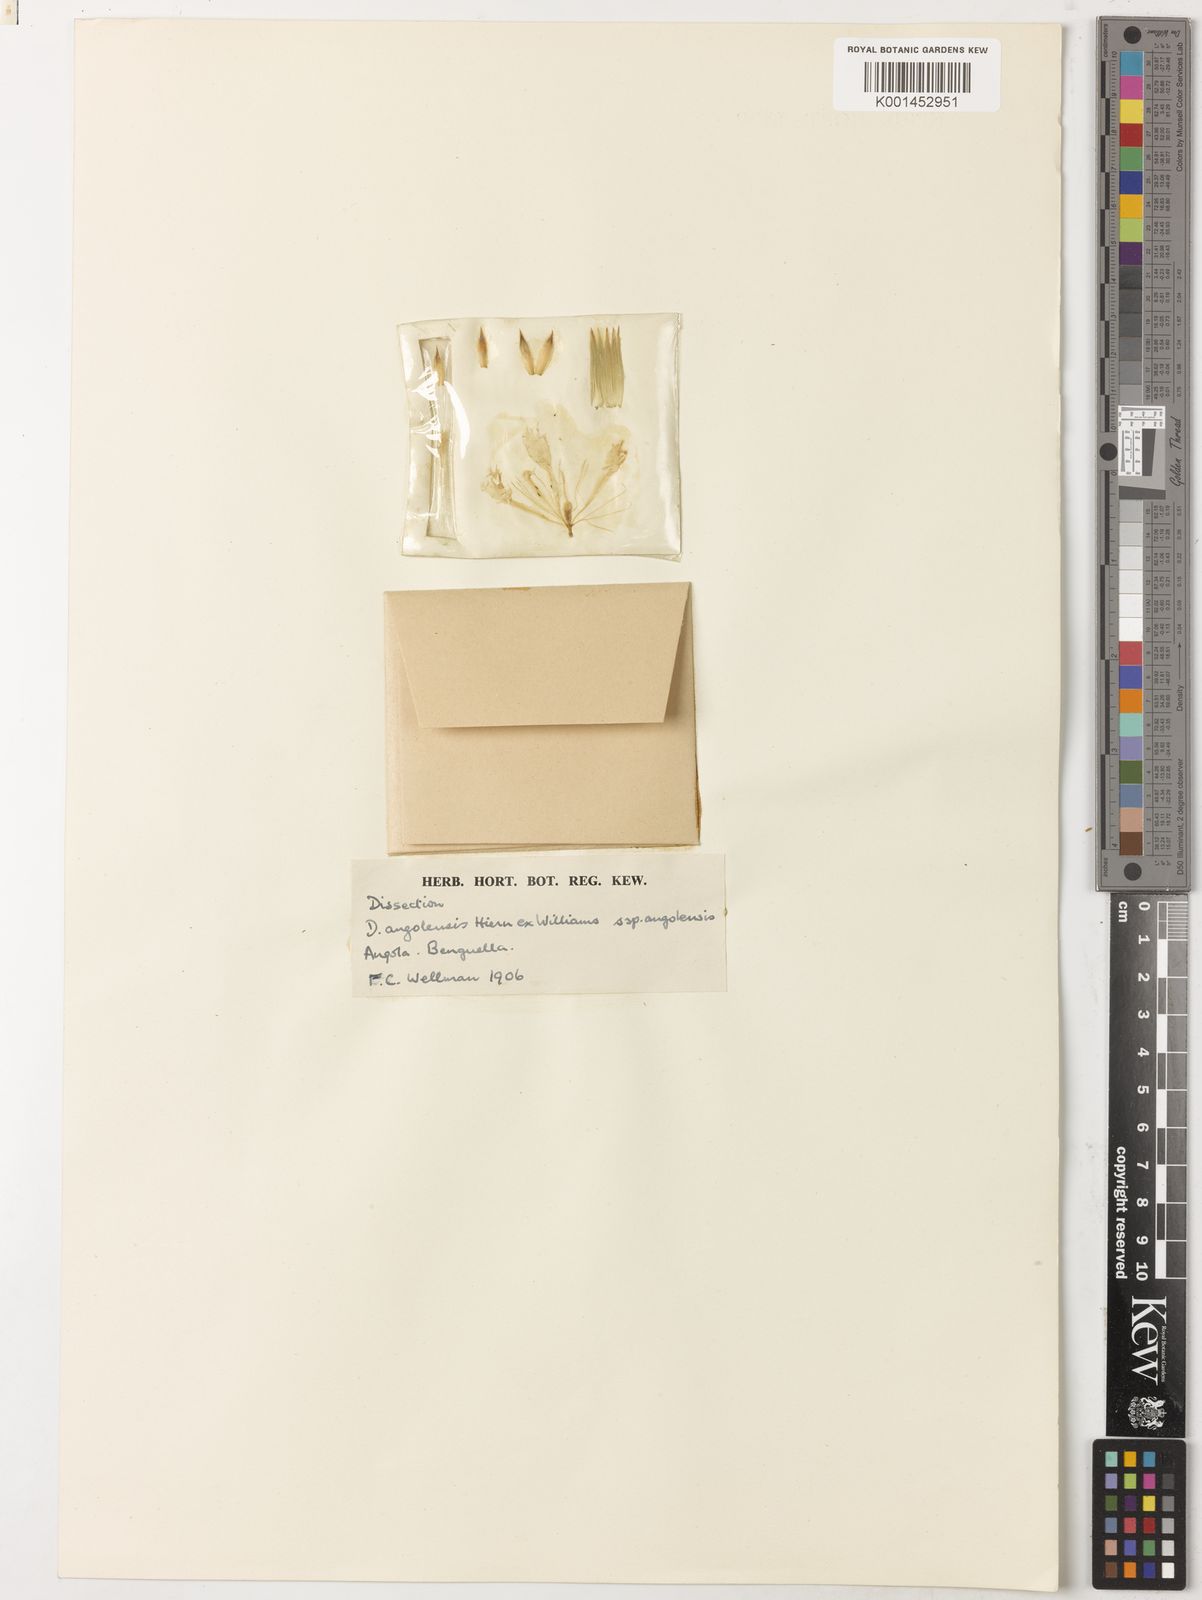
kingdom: Plantae
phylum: Tracheophyta
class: Magnoliopsida
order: Caryophyllales
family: Caryophyllaceae
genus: Dianthus
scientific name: Dianthus angolensis
